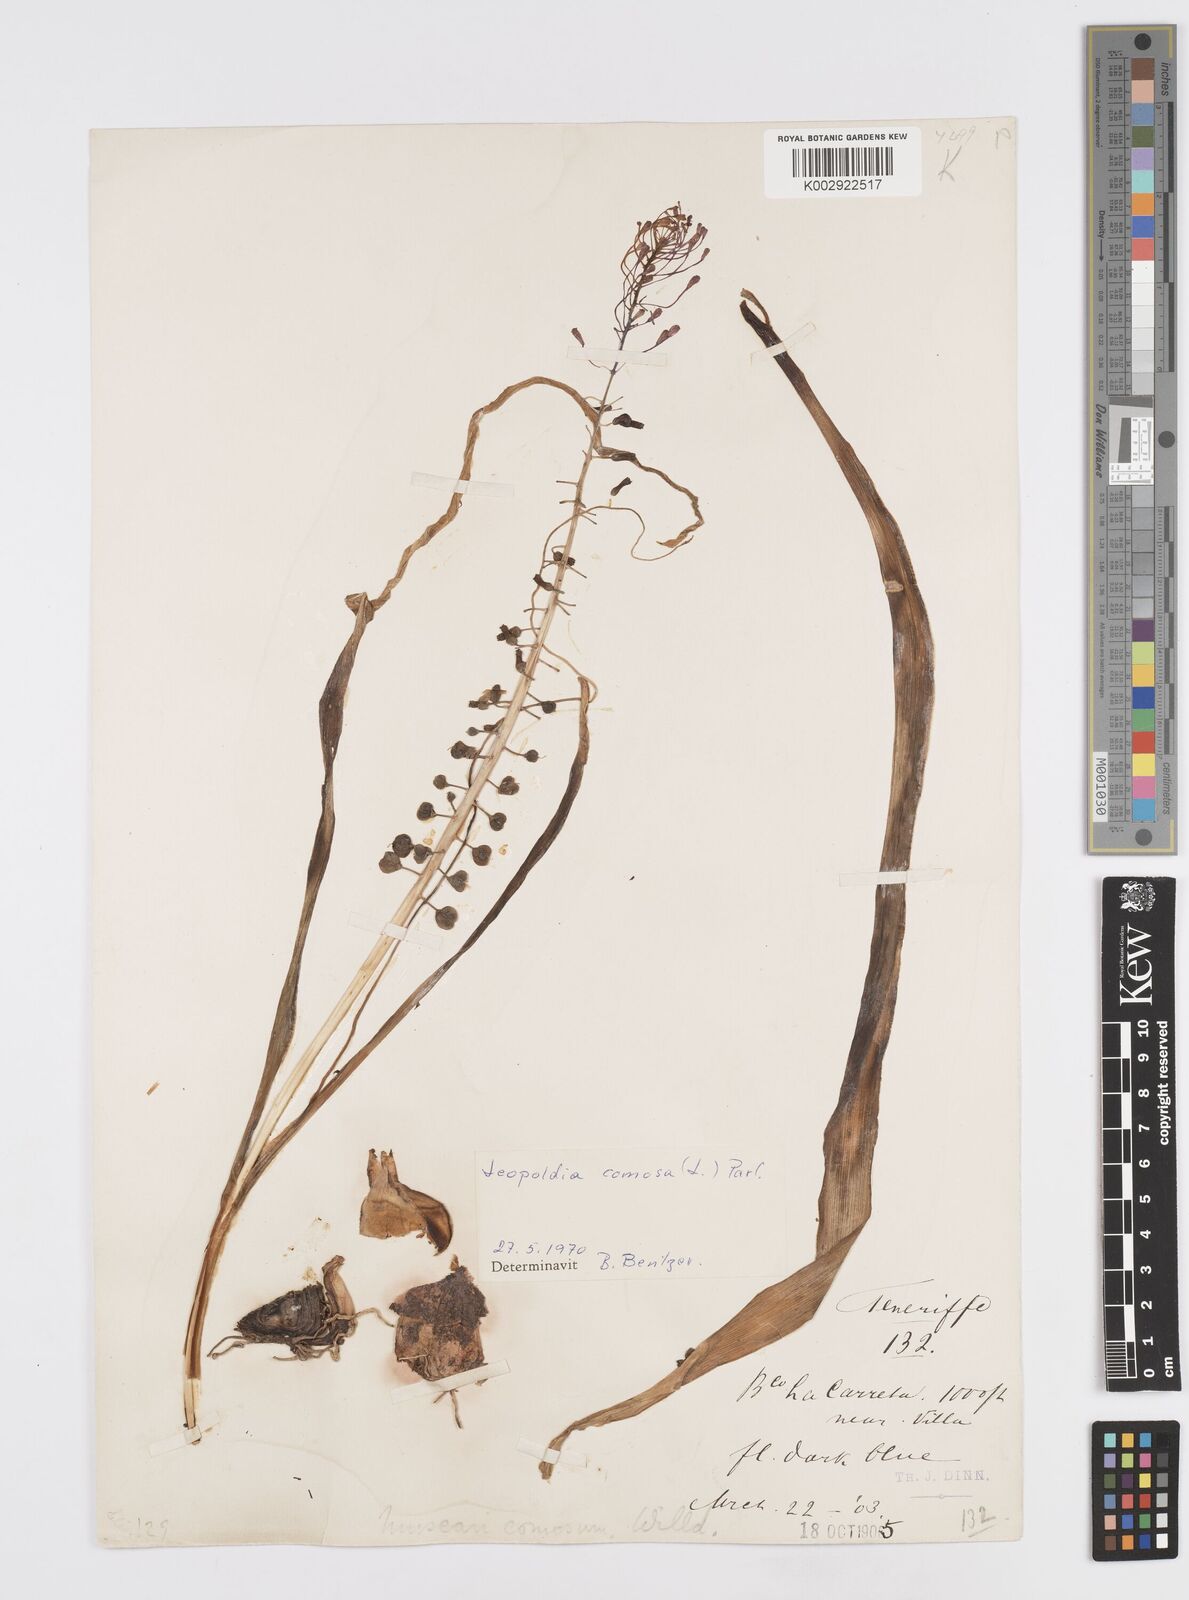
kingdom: Plantae
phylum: Tracheophyta
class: Liliopsida
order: Asparagales
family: Asparagaceae
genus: Muscari
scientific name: Muscari comosum
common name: Tassel hyacinth
